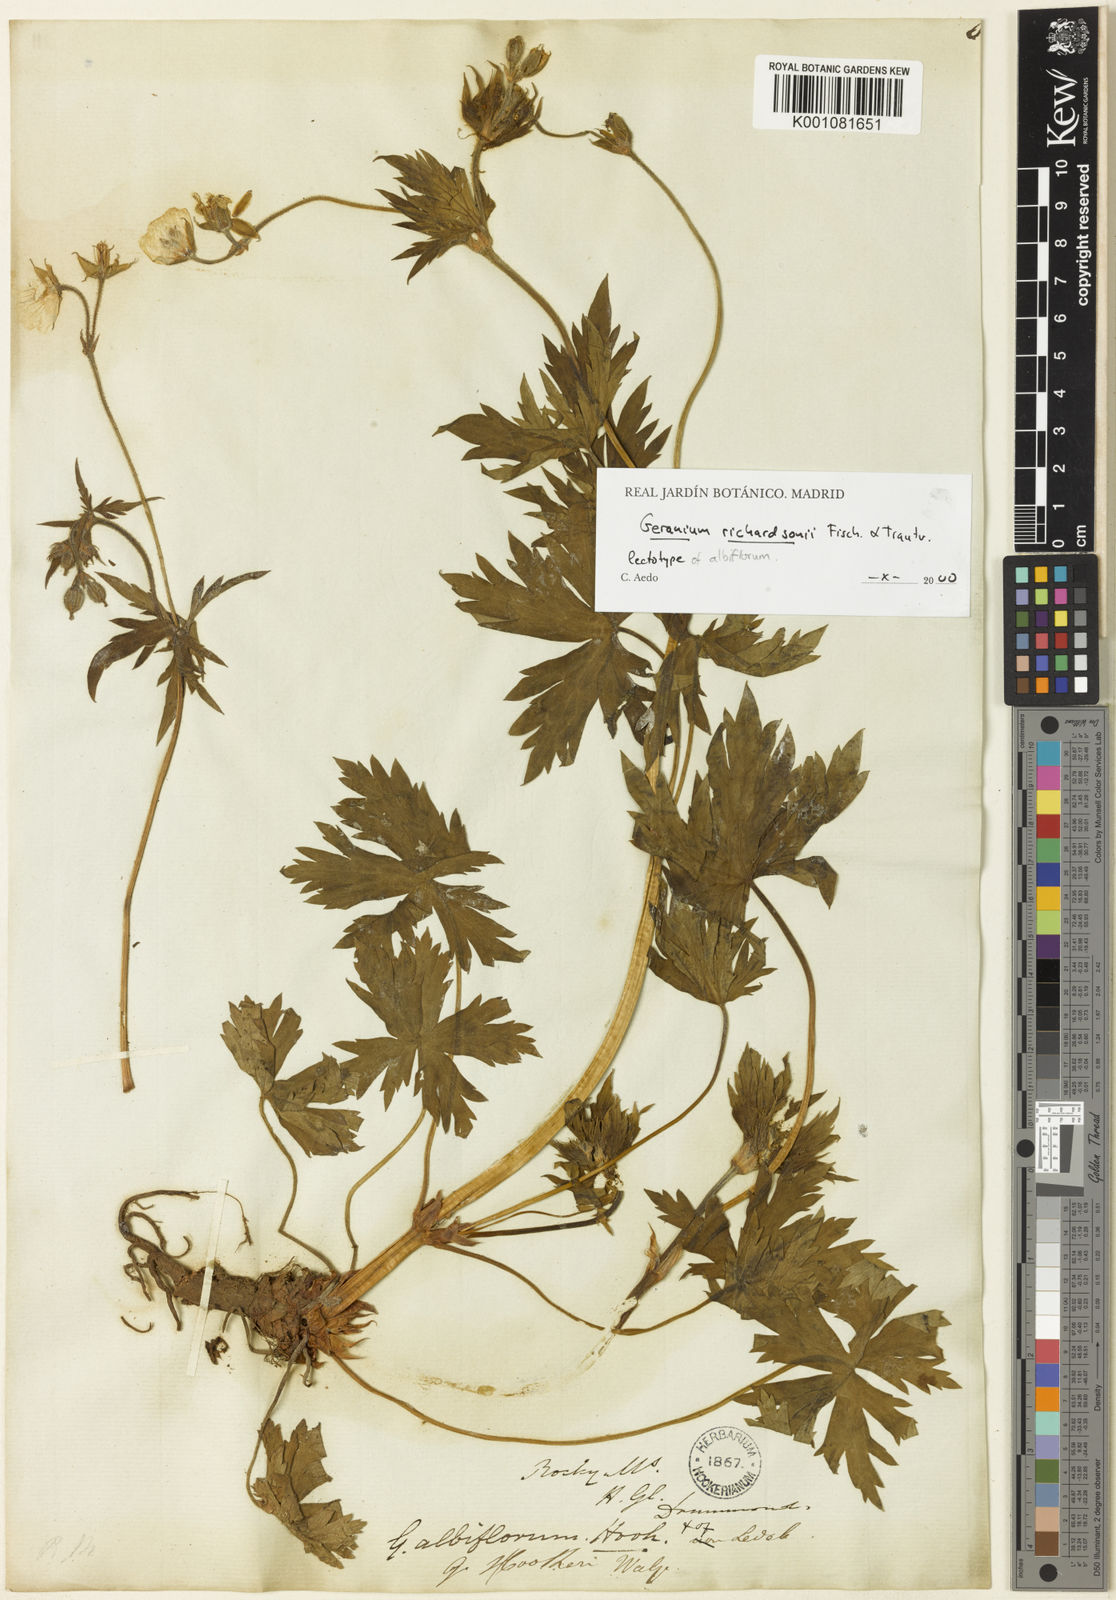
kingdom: Plantae
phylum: Tracheophyta
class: Magnoliopsida
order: Geraniales
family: Geraniaceae
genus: Geranium
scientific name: Geranium richardsonii
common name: Richardson's crane's-bill
